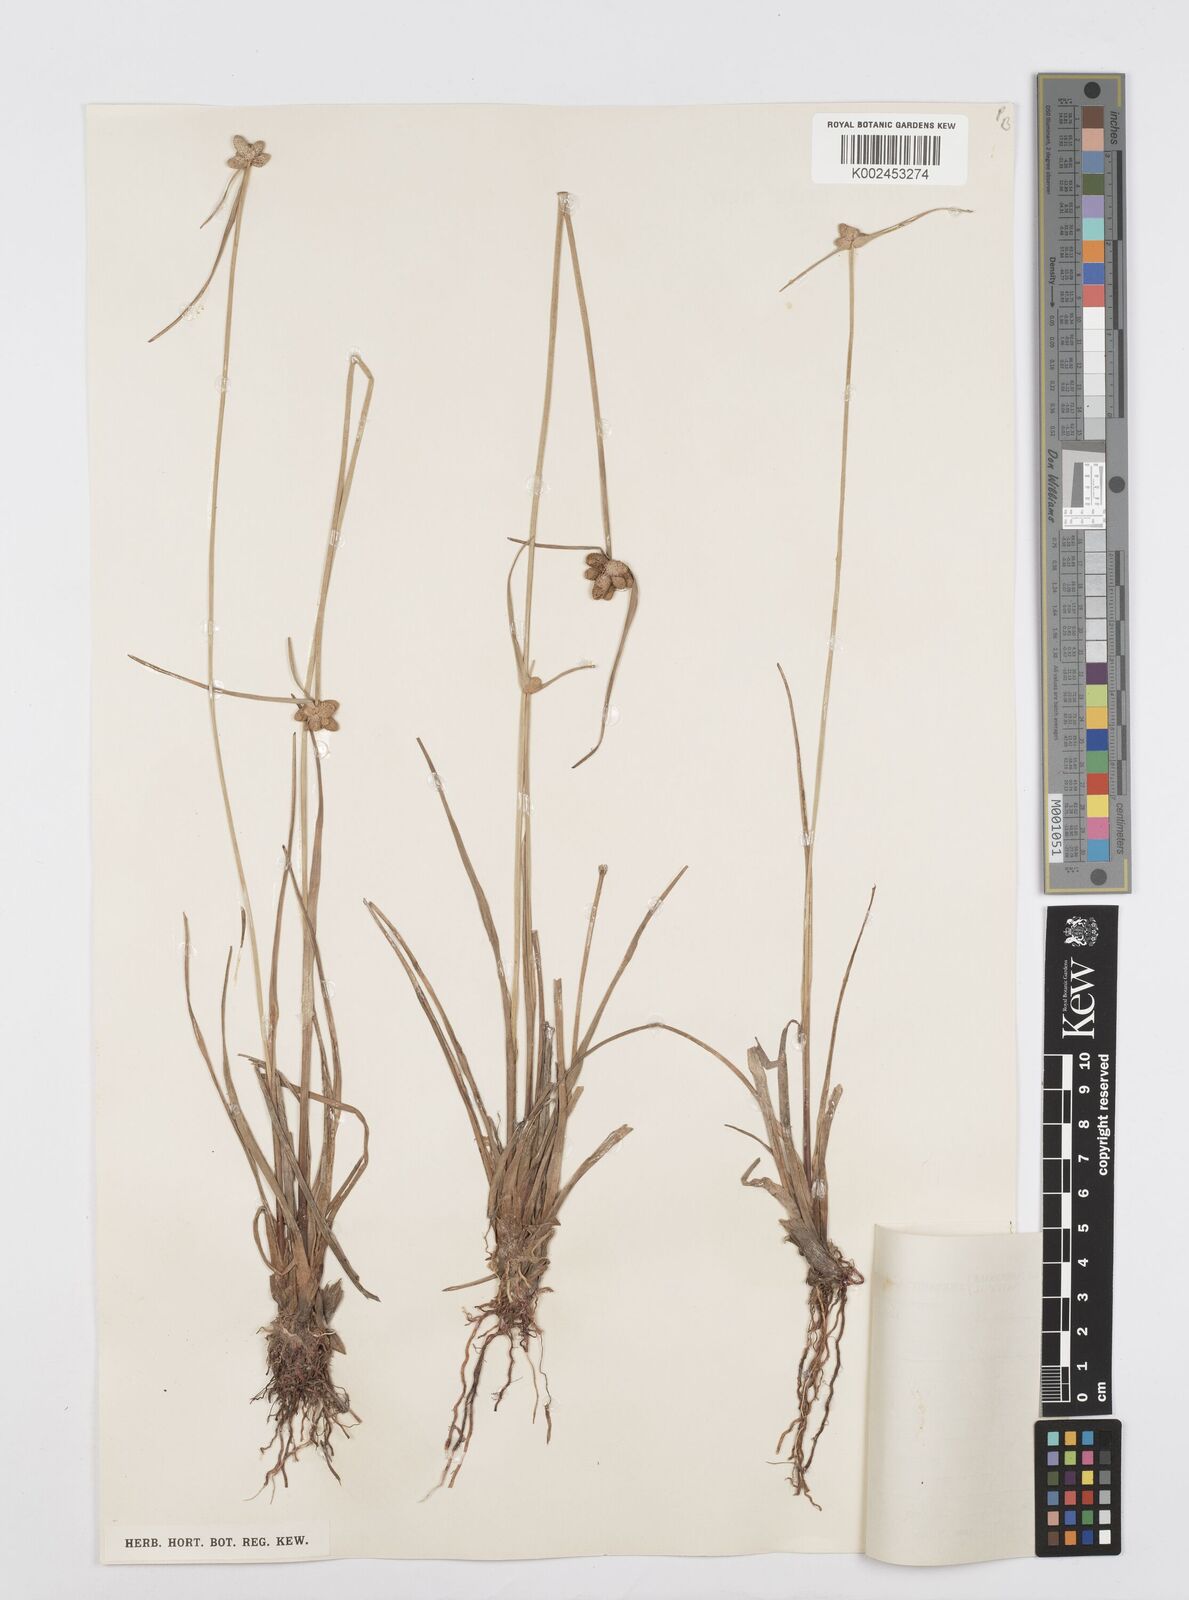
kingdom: Plantae
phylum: Tracheophyta
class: Liliopsida
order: Poales
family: Cyperaceae
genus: Cyperus
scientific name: Cyperus albescens
